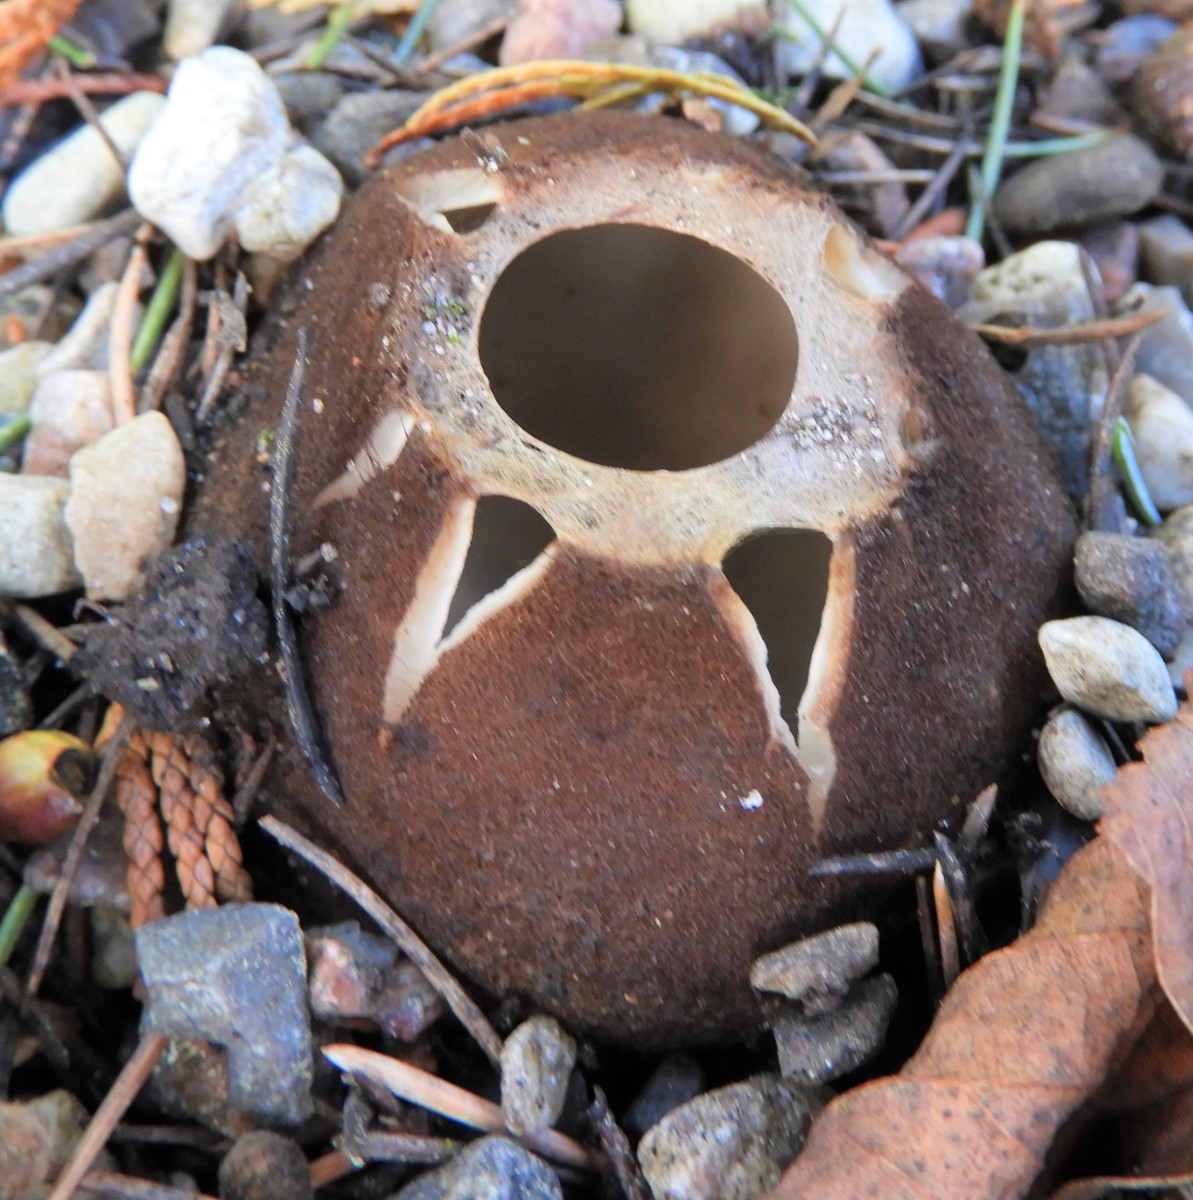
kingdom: Fungi
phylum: Ascomycota
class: Pezizomycetes
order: Pezizales
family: Pyronemataceae
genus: Geopora
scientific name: Geopora sumneriana
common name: vår-jordbæger
